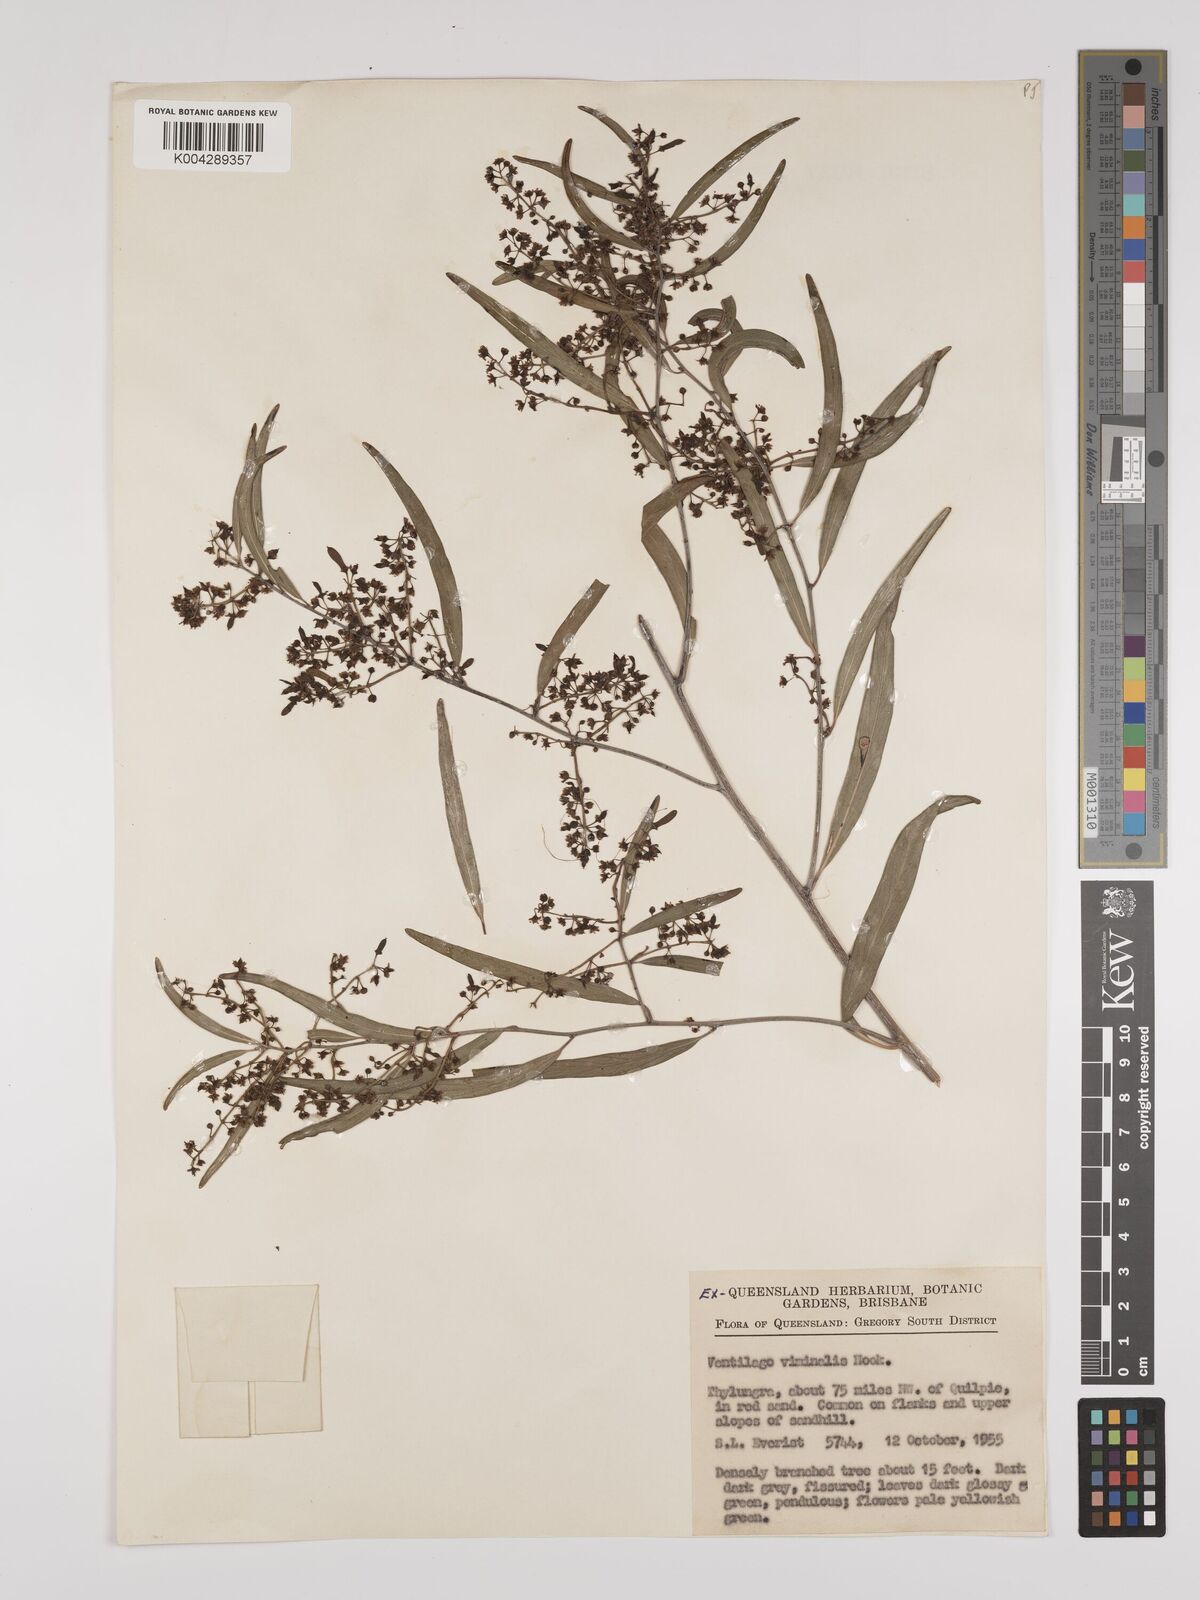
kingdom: Plantae
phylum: Tracheophyta
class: Magnoliopsida
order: Rosales
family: Rhamnaceae
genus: Ventilago
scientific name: Ventilago viminalis
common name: Medicine-bark
